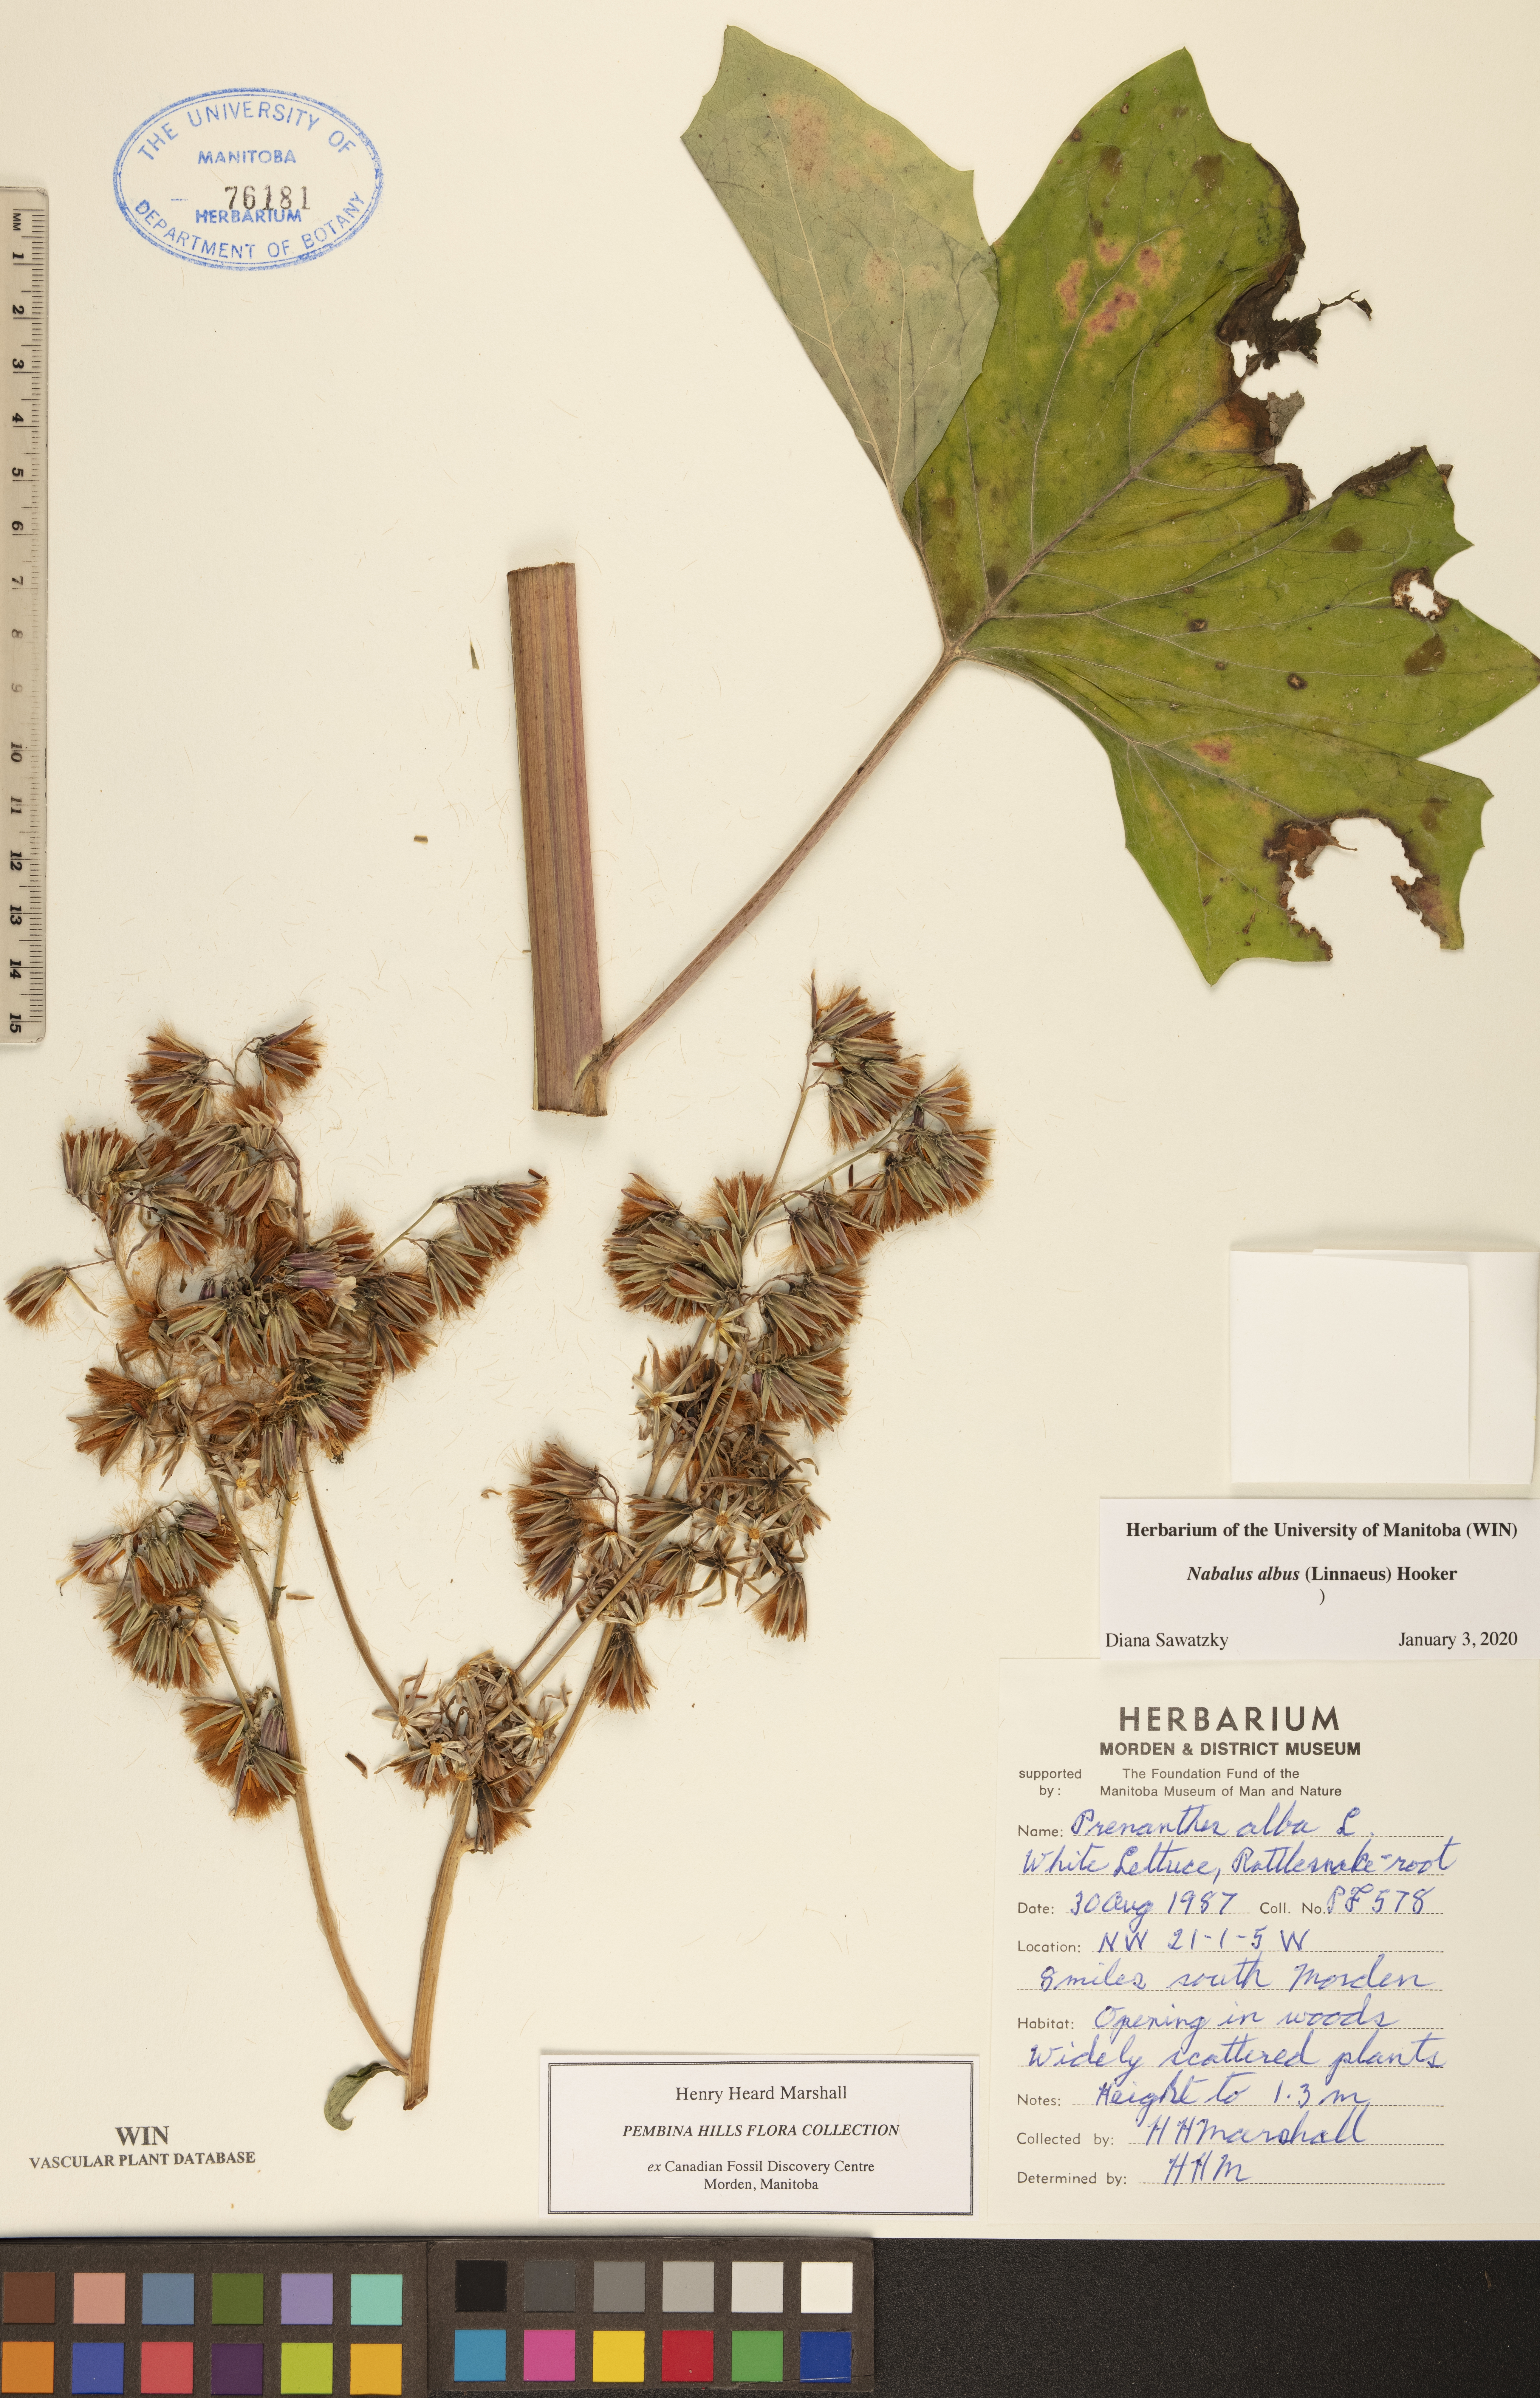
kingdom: Plantae
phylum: Tracheophyta
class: Magnoliopsida
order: Asterales
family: Asteraceae
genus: Nabalus
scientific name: Nabalus albus
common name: White rattlesnakeroot
